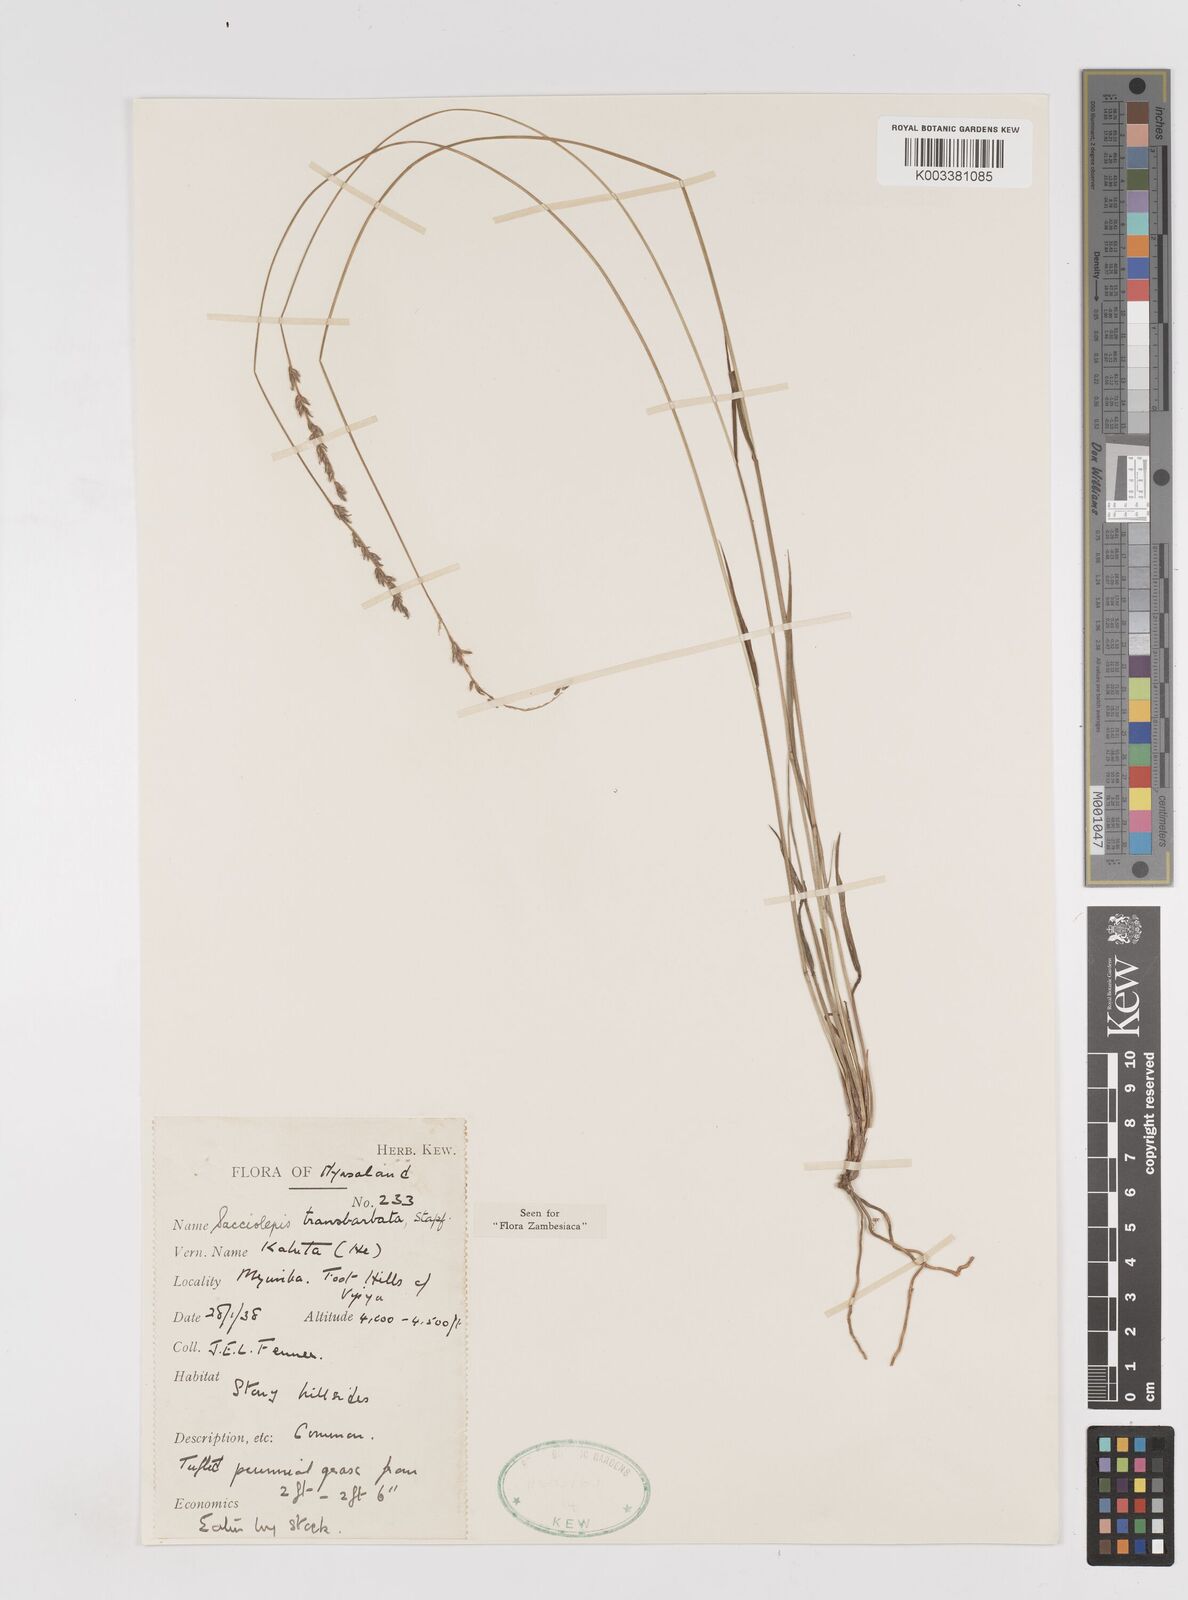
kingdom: Plantae
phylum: Tracheophyta
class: Liliopsida
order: Poales
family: Poaceae
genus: Sacciolepis
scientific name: Sacciolepis transbarbata
